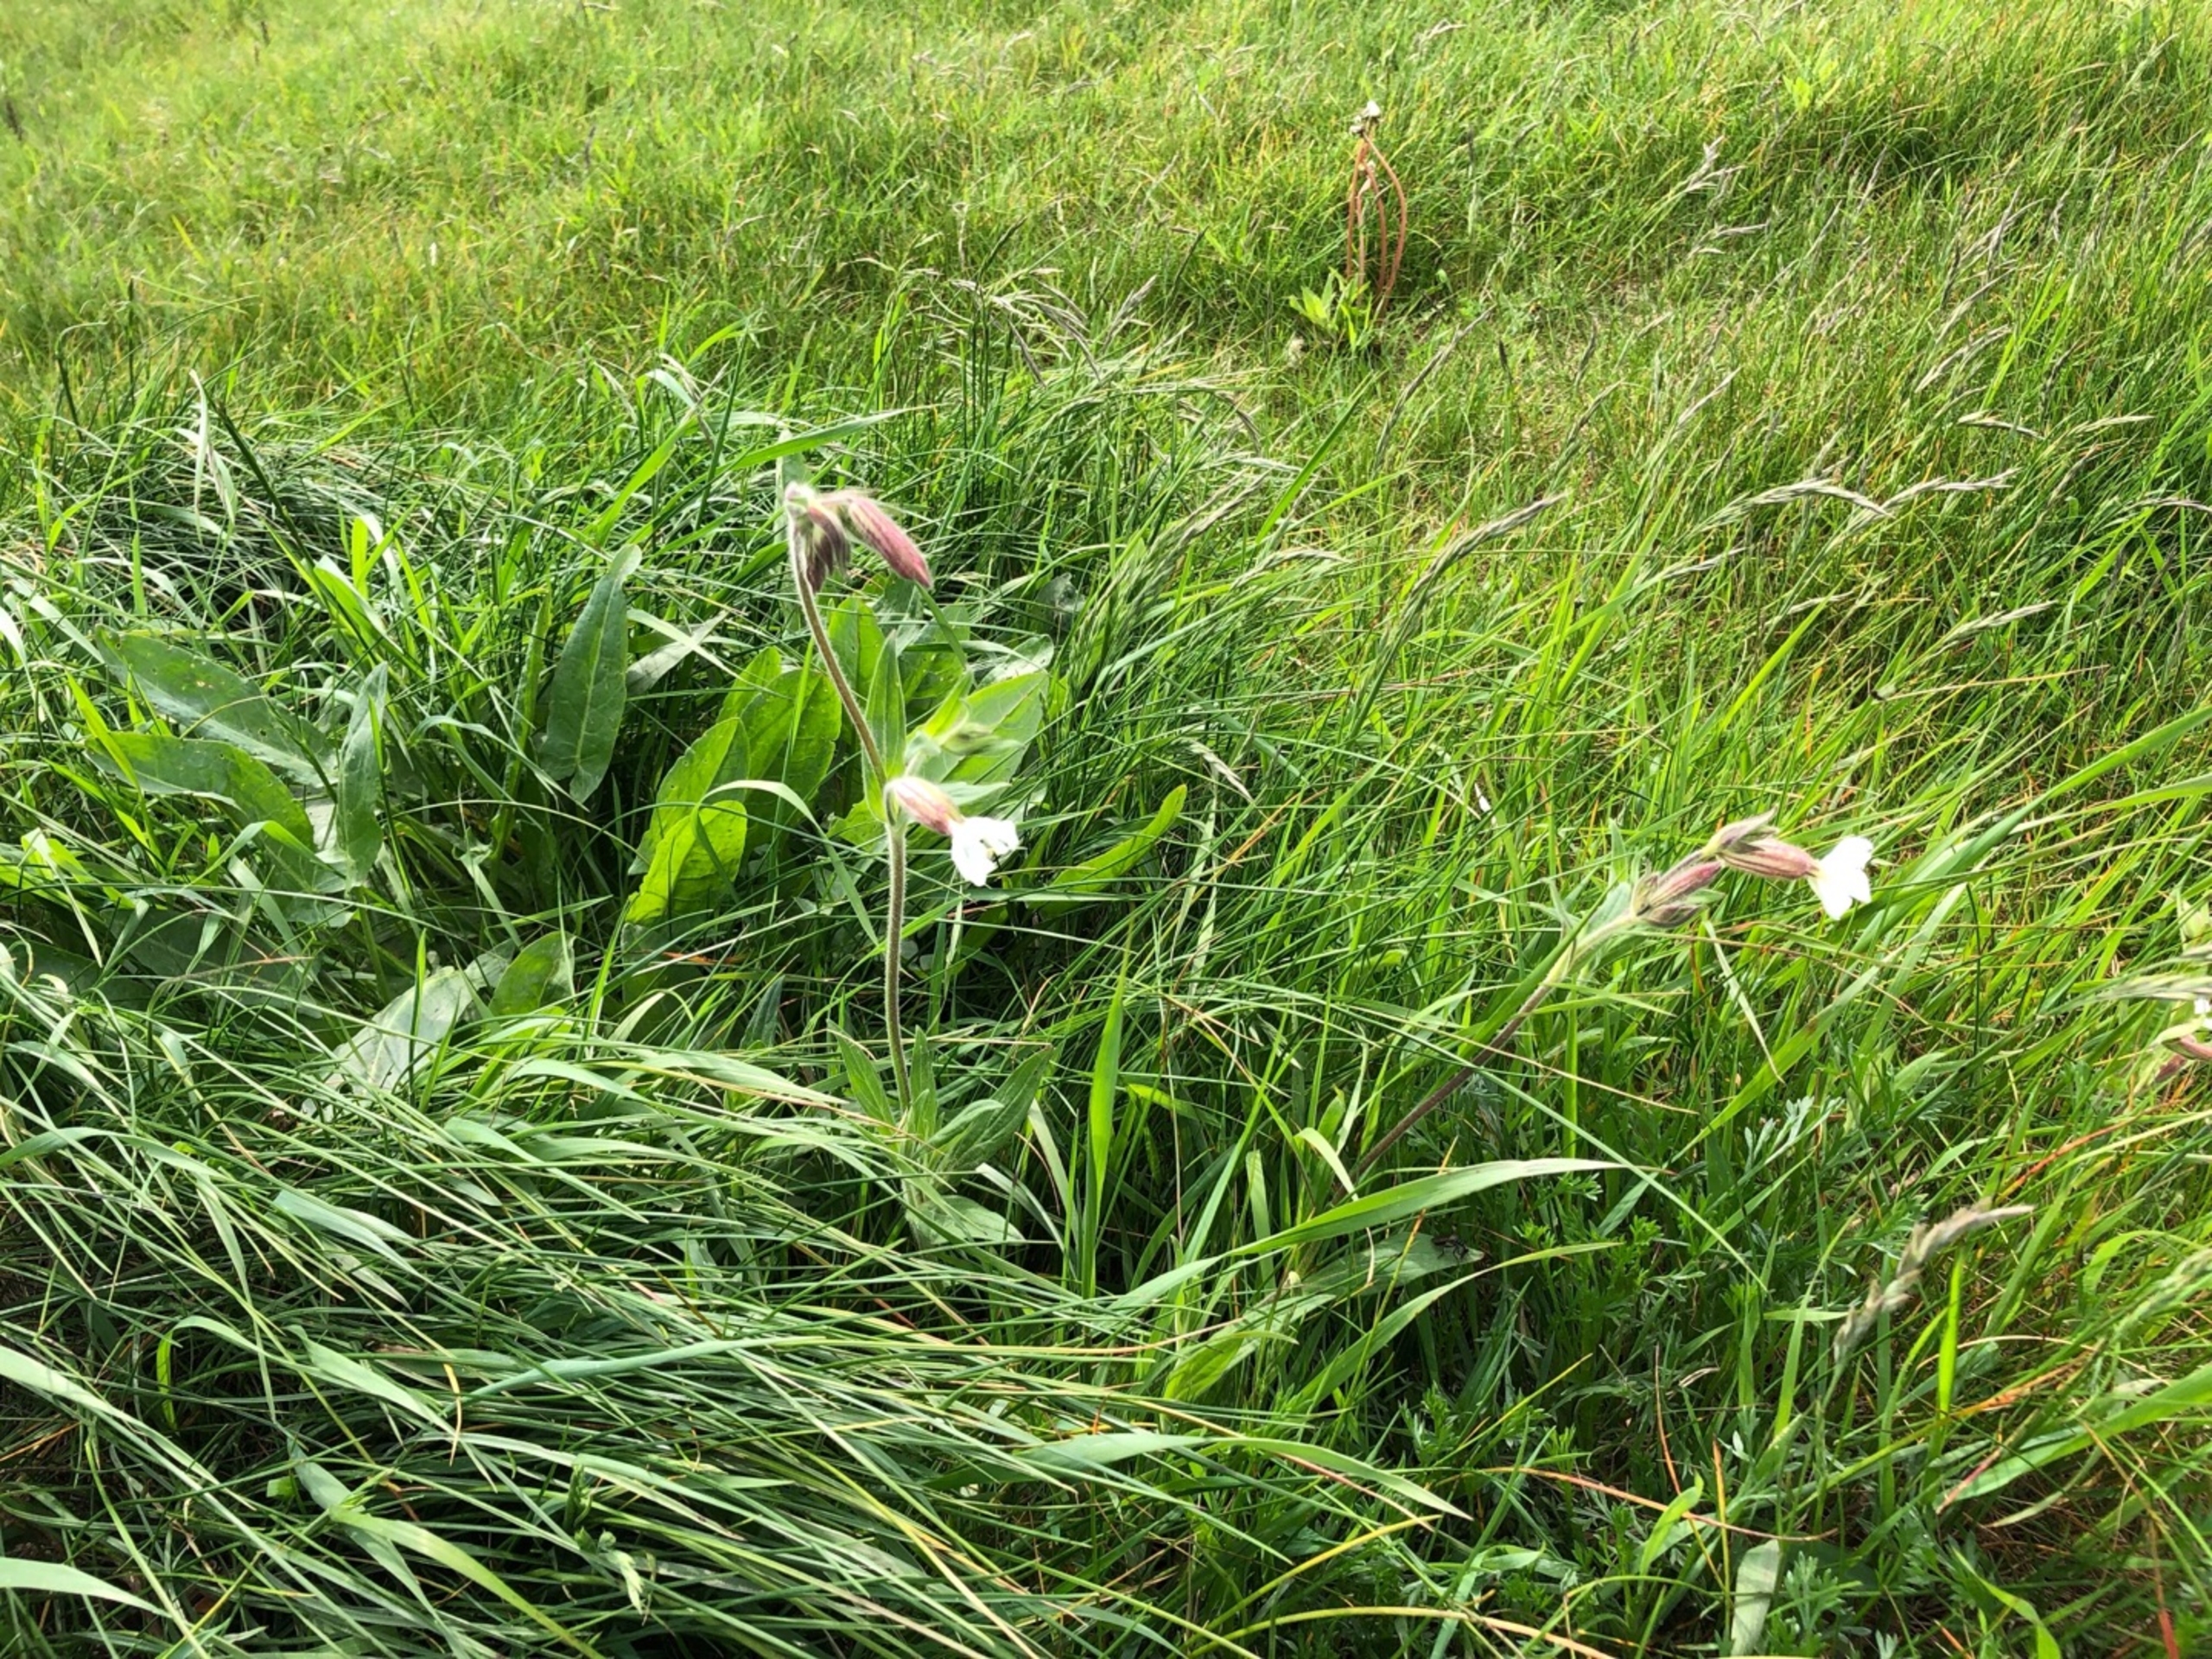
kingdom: Plantae
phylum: Tracheophyta
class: Magnoliopsida
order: Caryophyllales
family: Caryophyllaceae
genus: Silene
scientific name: Silene latifolia
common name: Aftenpragtstjerne
